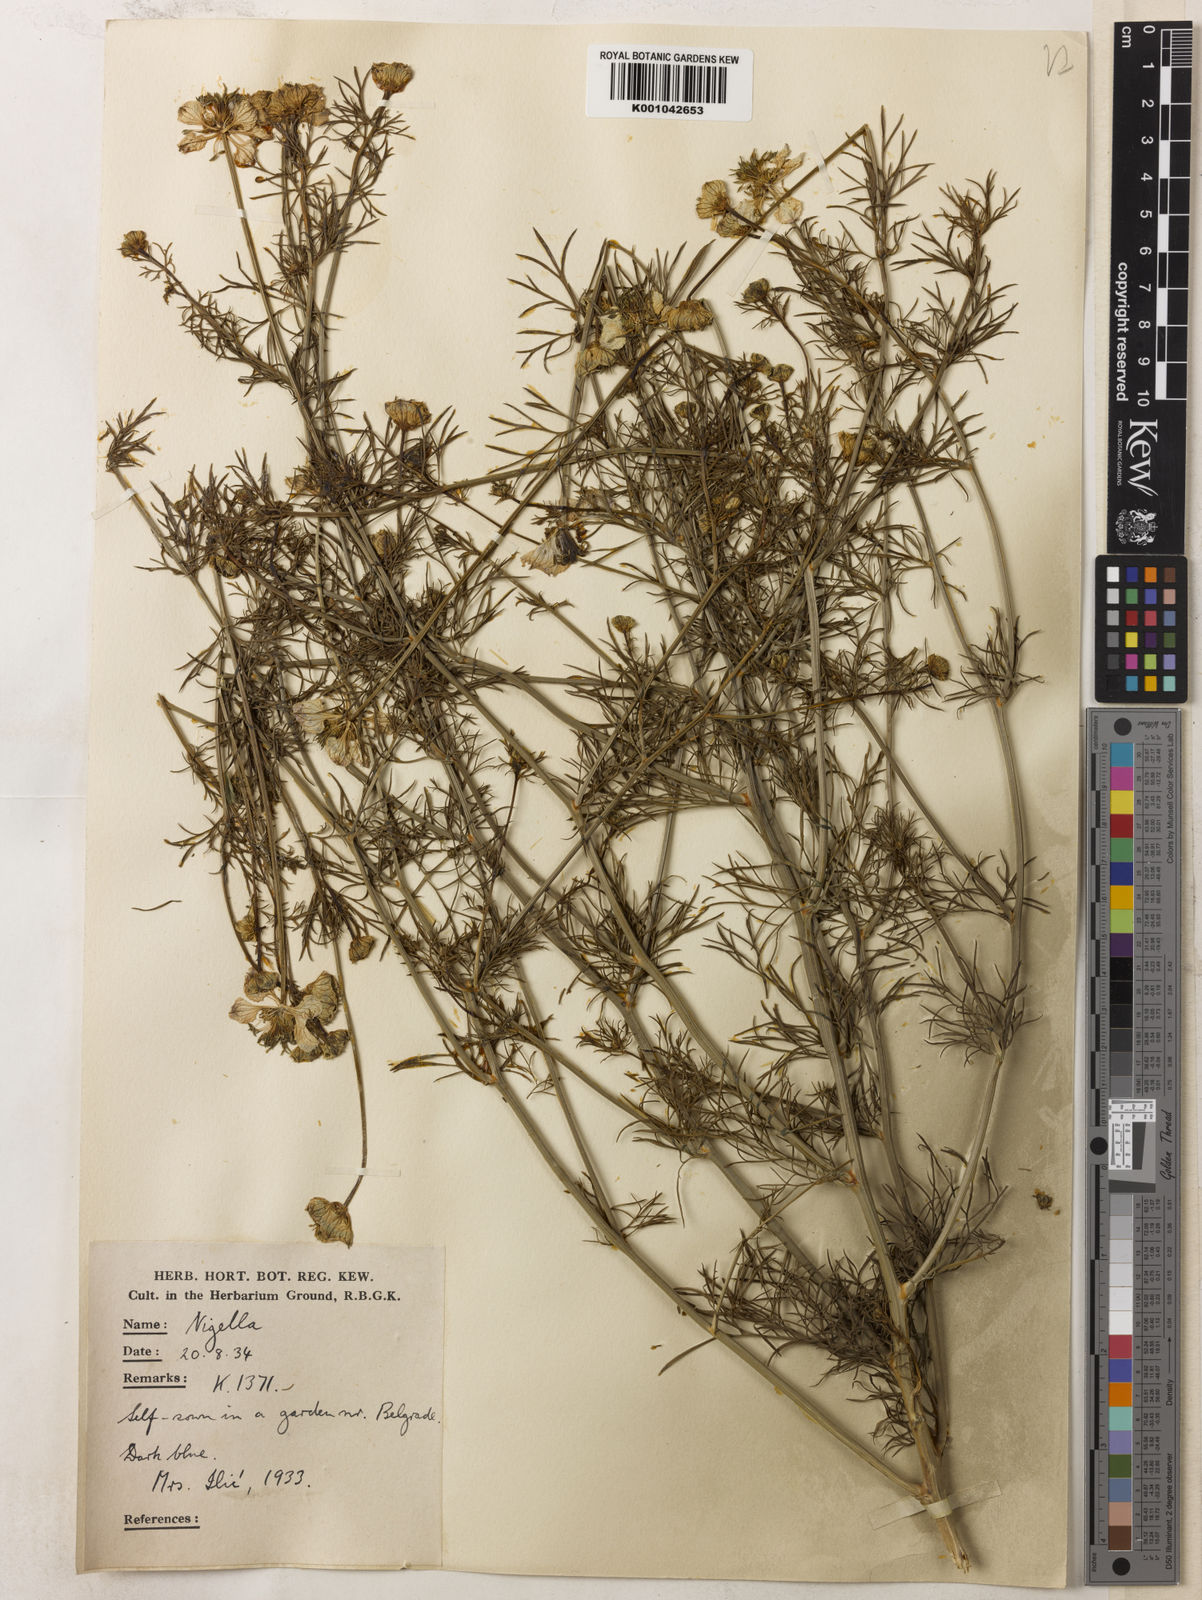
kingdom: Plantae
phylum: Tracheophyta
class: Magnoliopsida
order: Ranunculales
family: Ranunculaceae
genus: Nigella
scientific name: Nigella arvensis
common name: Wild fennel-flower
